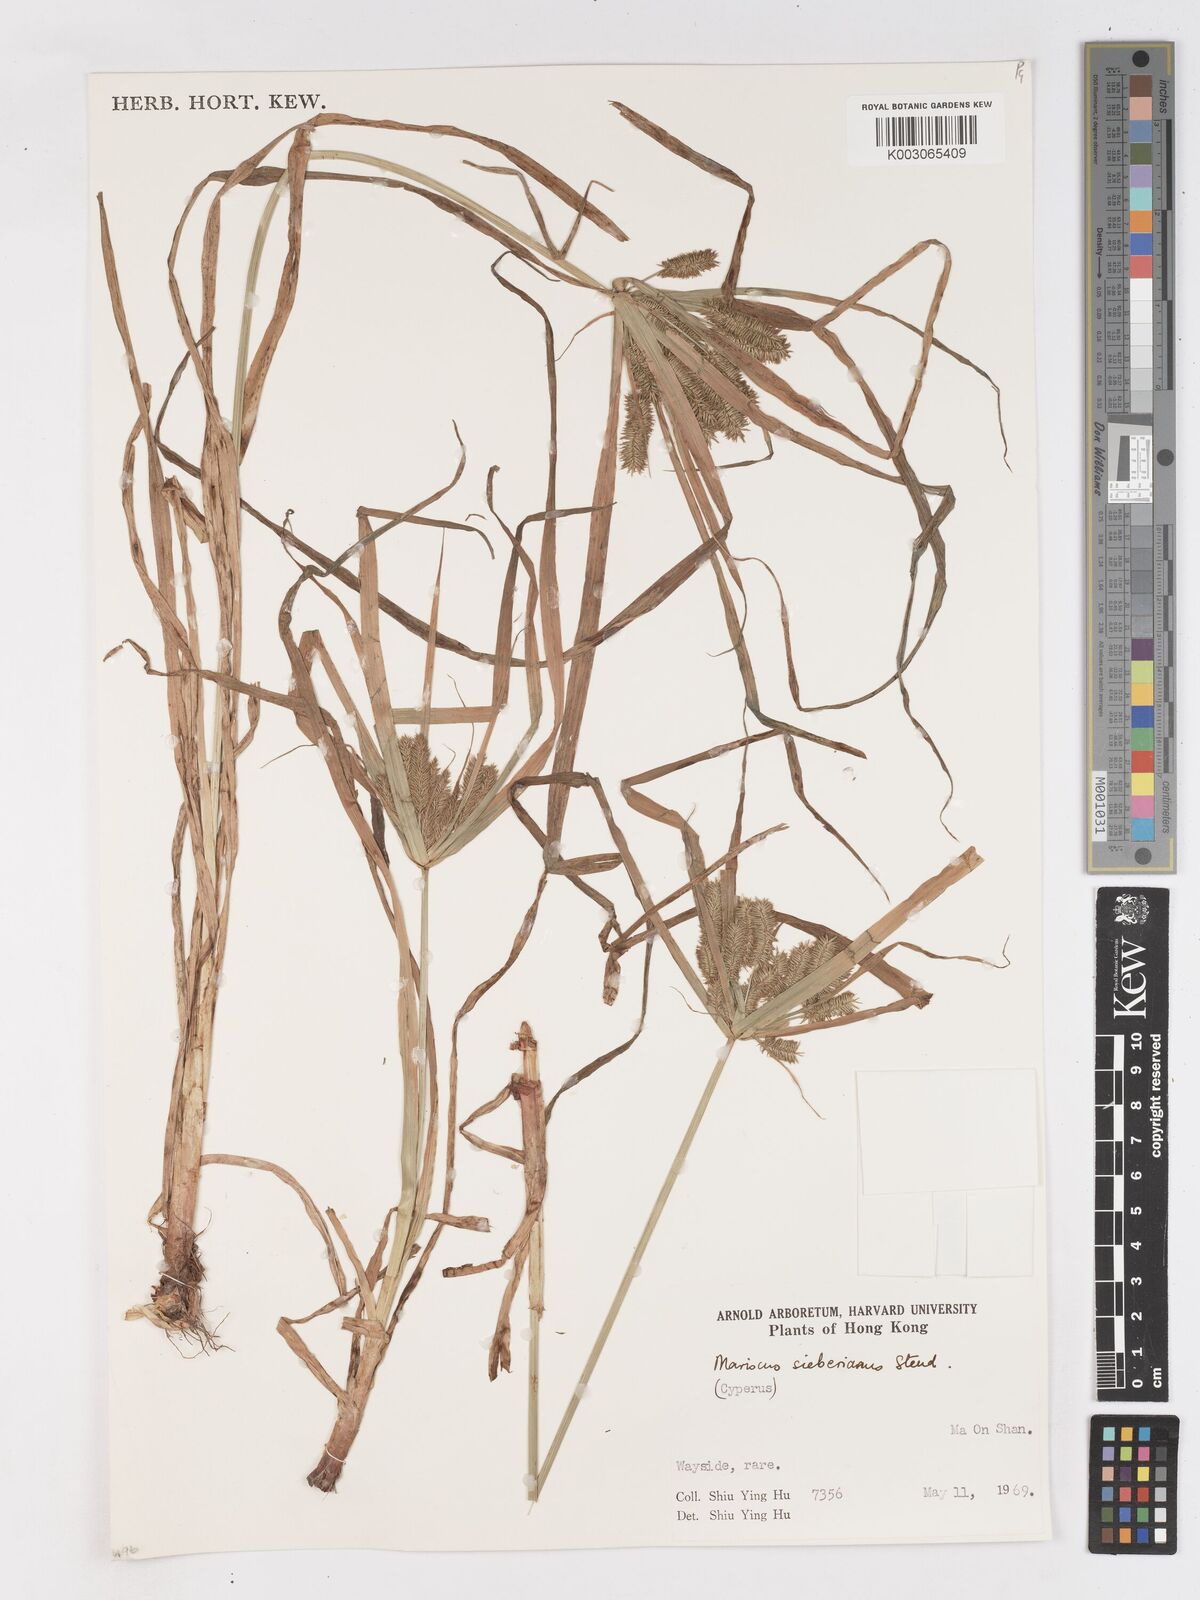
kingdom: Plantae
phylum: Tracheophyta
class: Liliopsida
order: Poales
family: Cyperaceae
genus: Cyperus
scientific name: Cyperus cyperoides
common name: Pacific island flat sedge
